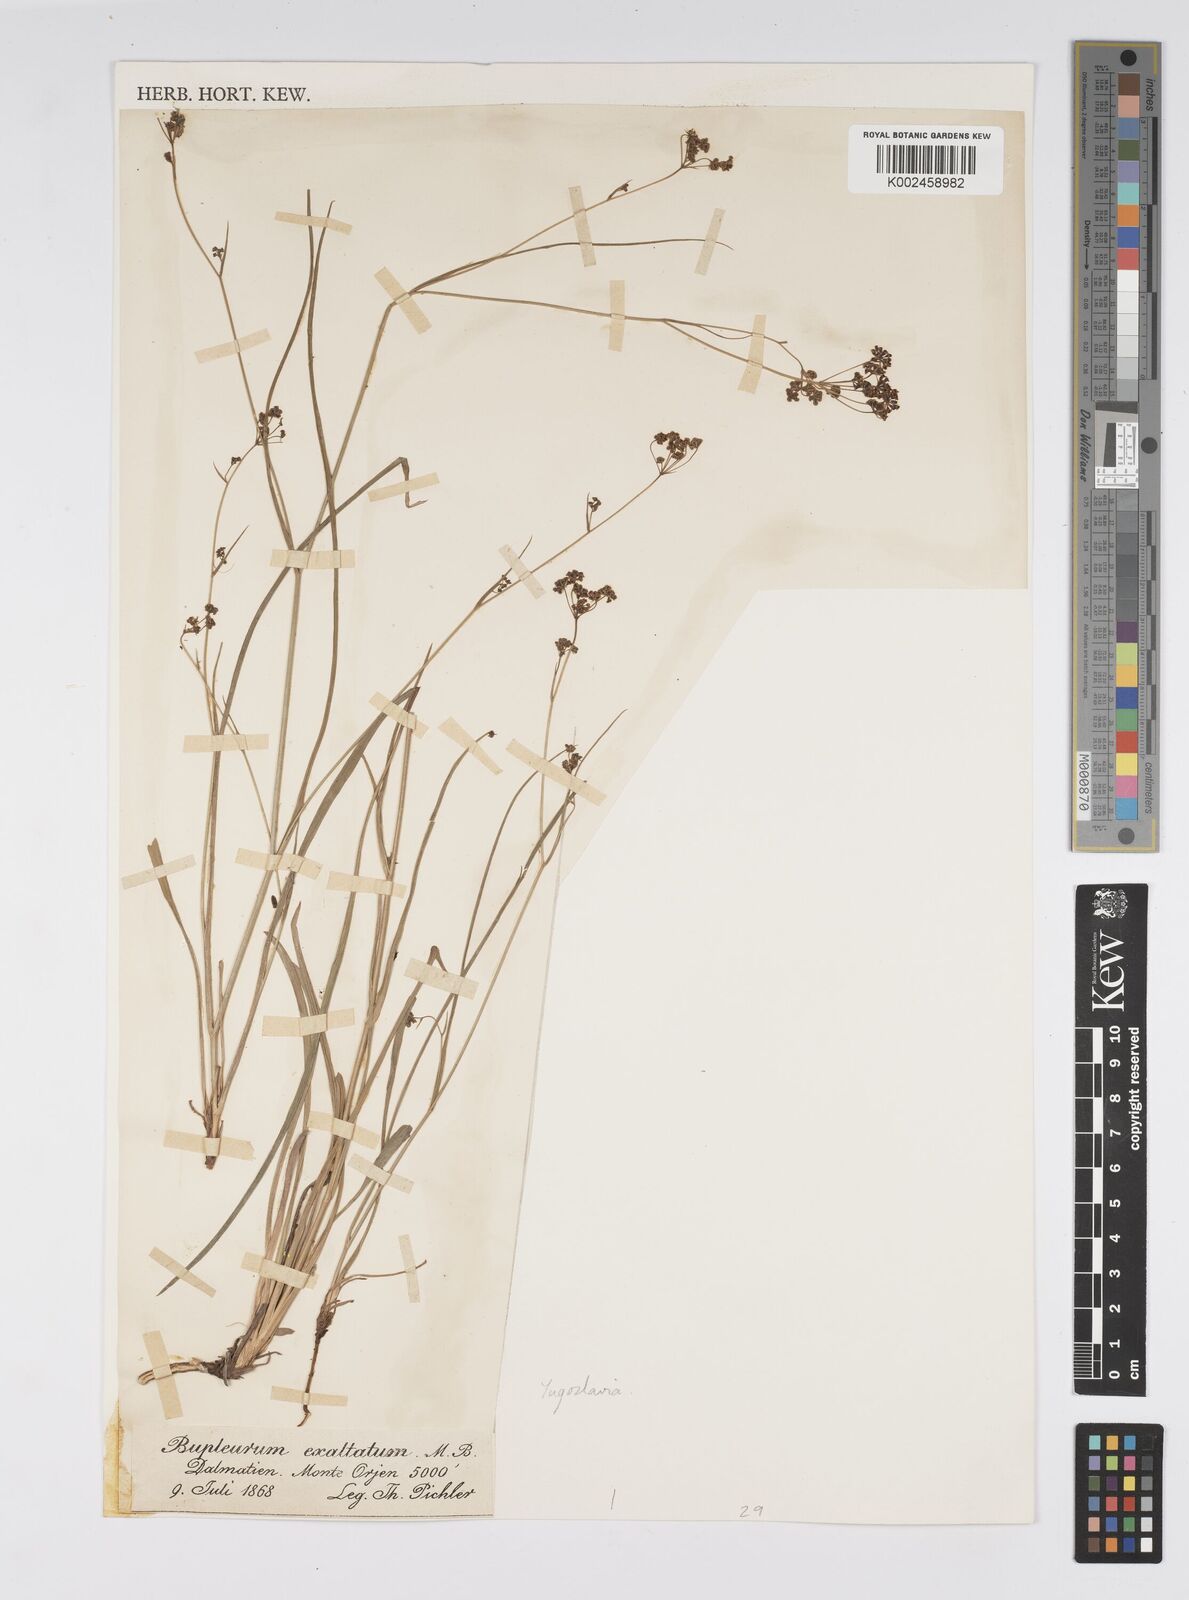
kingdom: Plantae
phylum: Tracheophyta
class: Magnoliopsida
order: Apiales
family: Apiaceae
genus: Bupleurum
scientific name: Bupleurum falcatum
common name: Sickle-leaved hare's-ear
